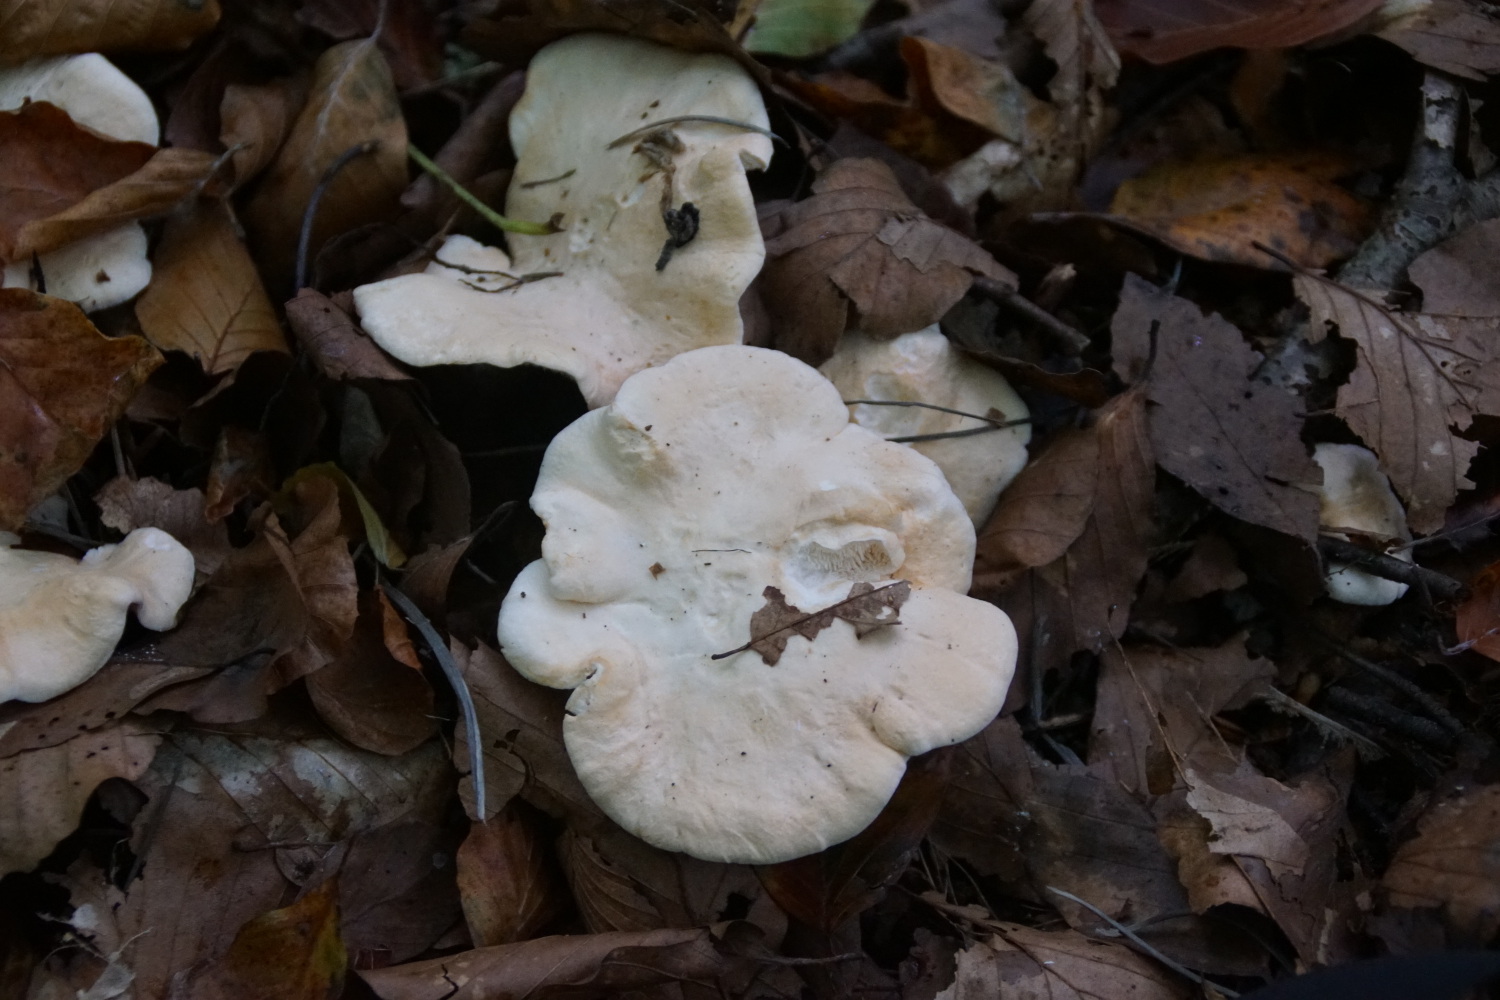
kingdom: Fungi
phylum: Basidiomycota
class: Agaricomycetes
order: Cantharellales
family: Hydnaceae
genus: Hydnum
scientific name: Hydnum repandum
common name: almindelig pigsvamp
